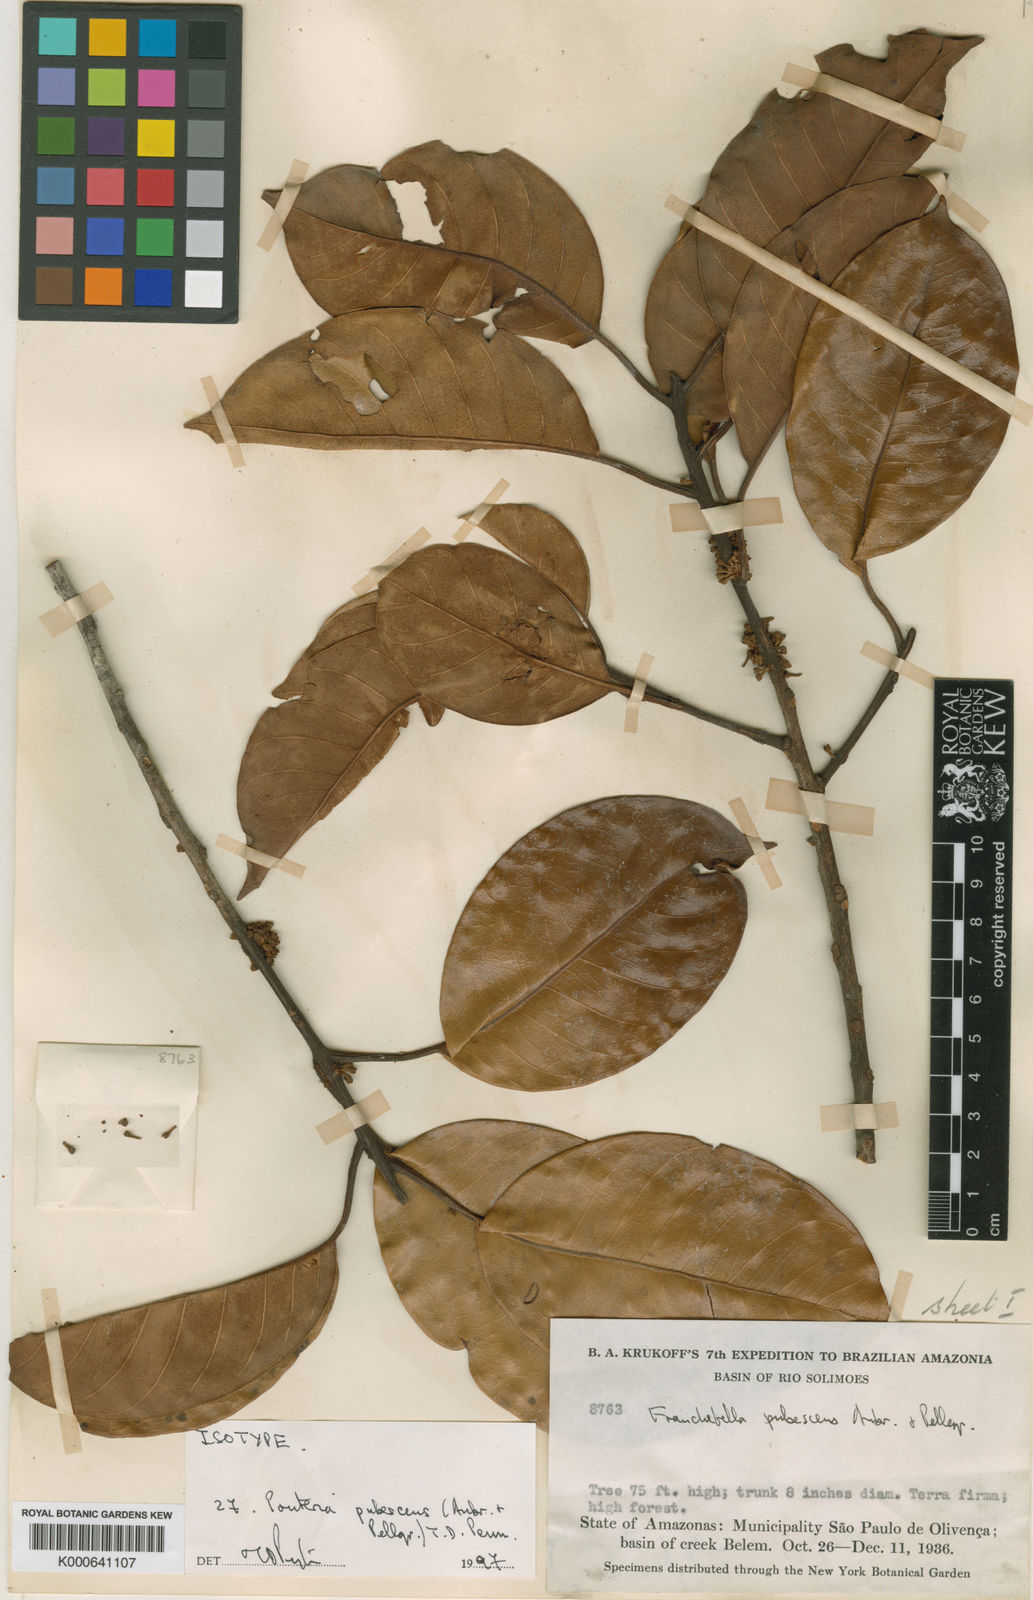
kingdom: Plantae
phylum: Tracheophyta
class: Magnoliopsida
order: Ericales
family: Sapotaceae
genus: Pouteria
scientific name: Pouteria
